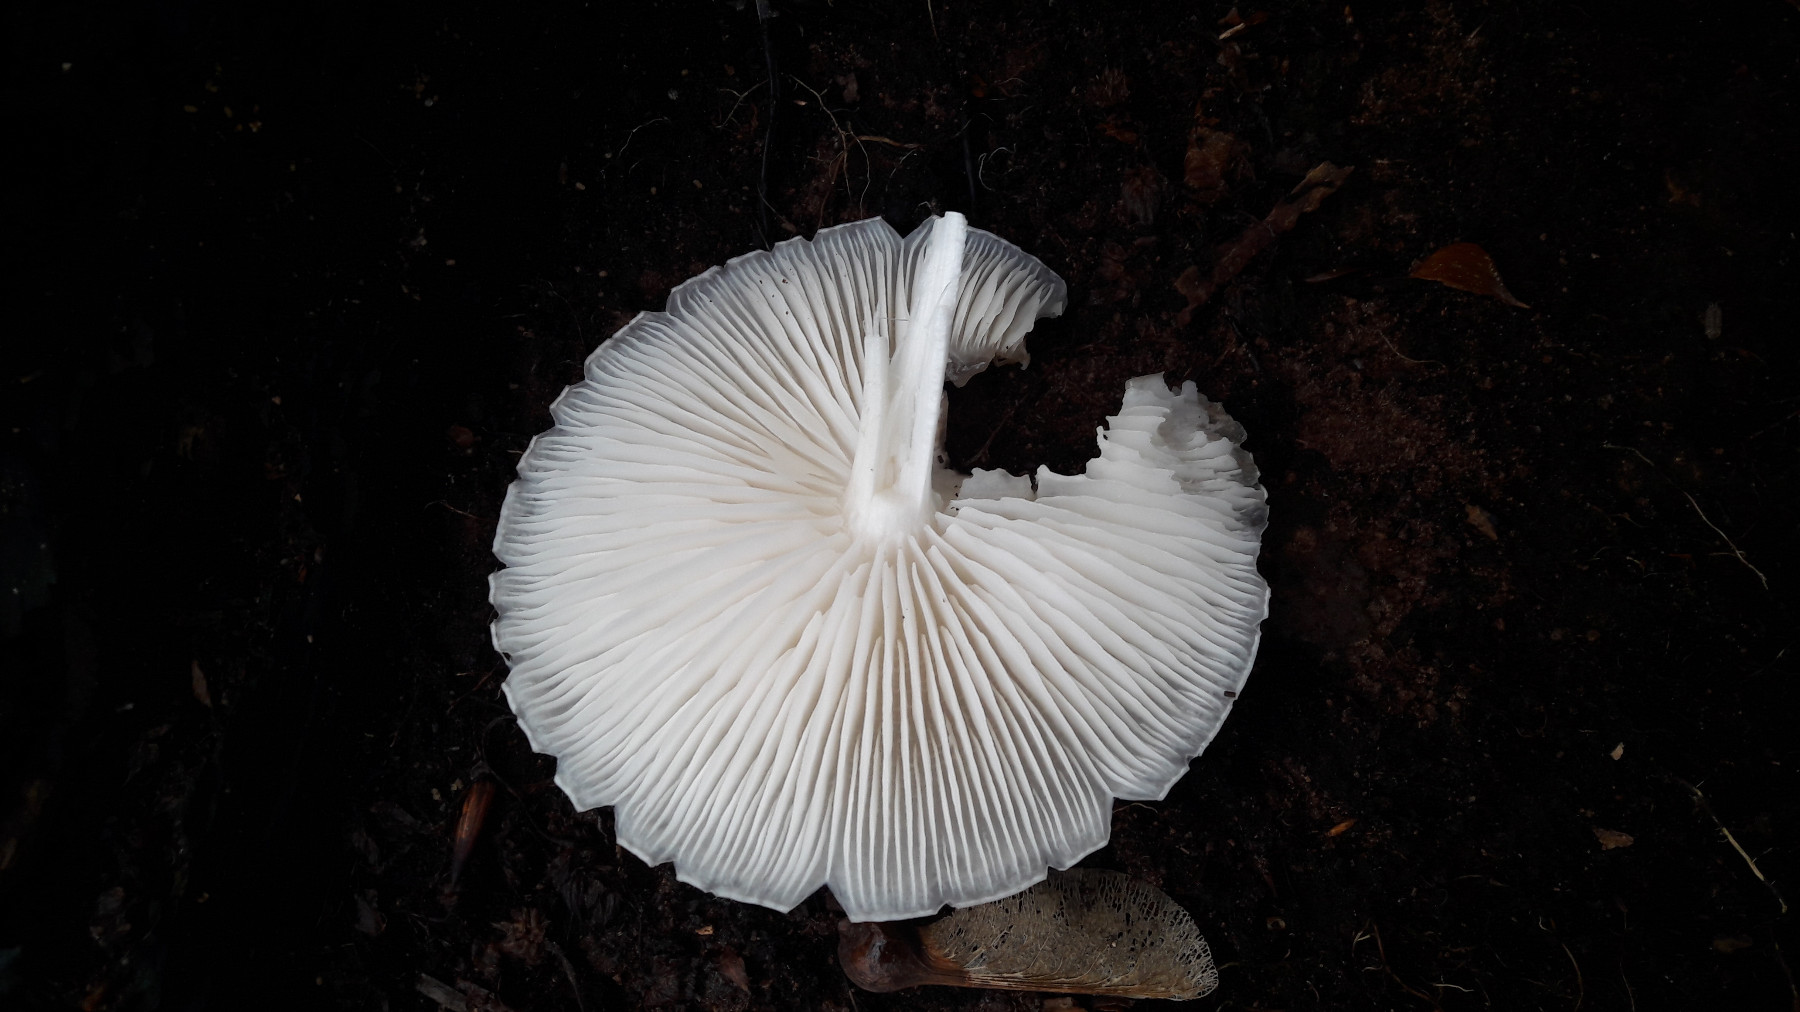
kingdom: Fungi
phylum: Basidiomycota
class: Agaricomycetes
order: Agaricales
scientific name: Agaricales
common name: champignonordenen
